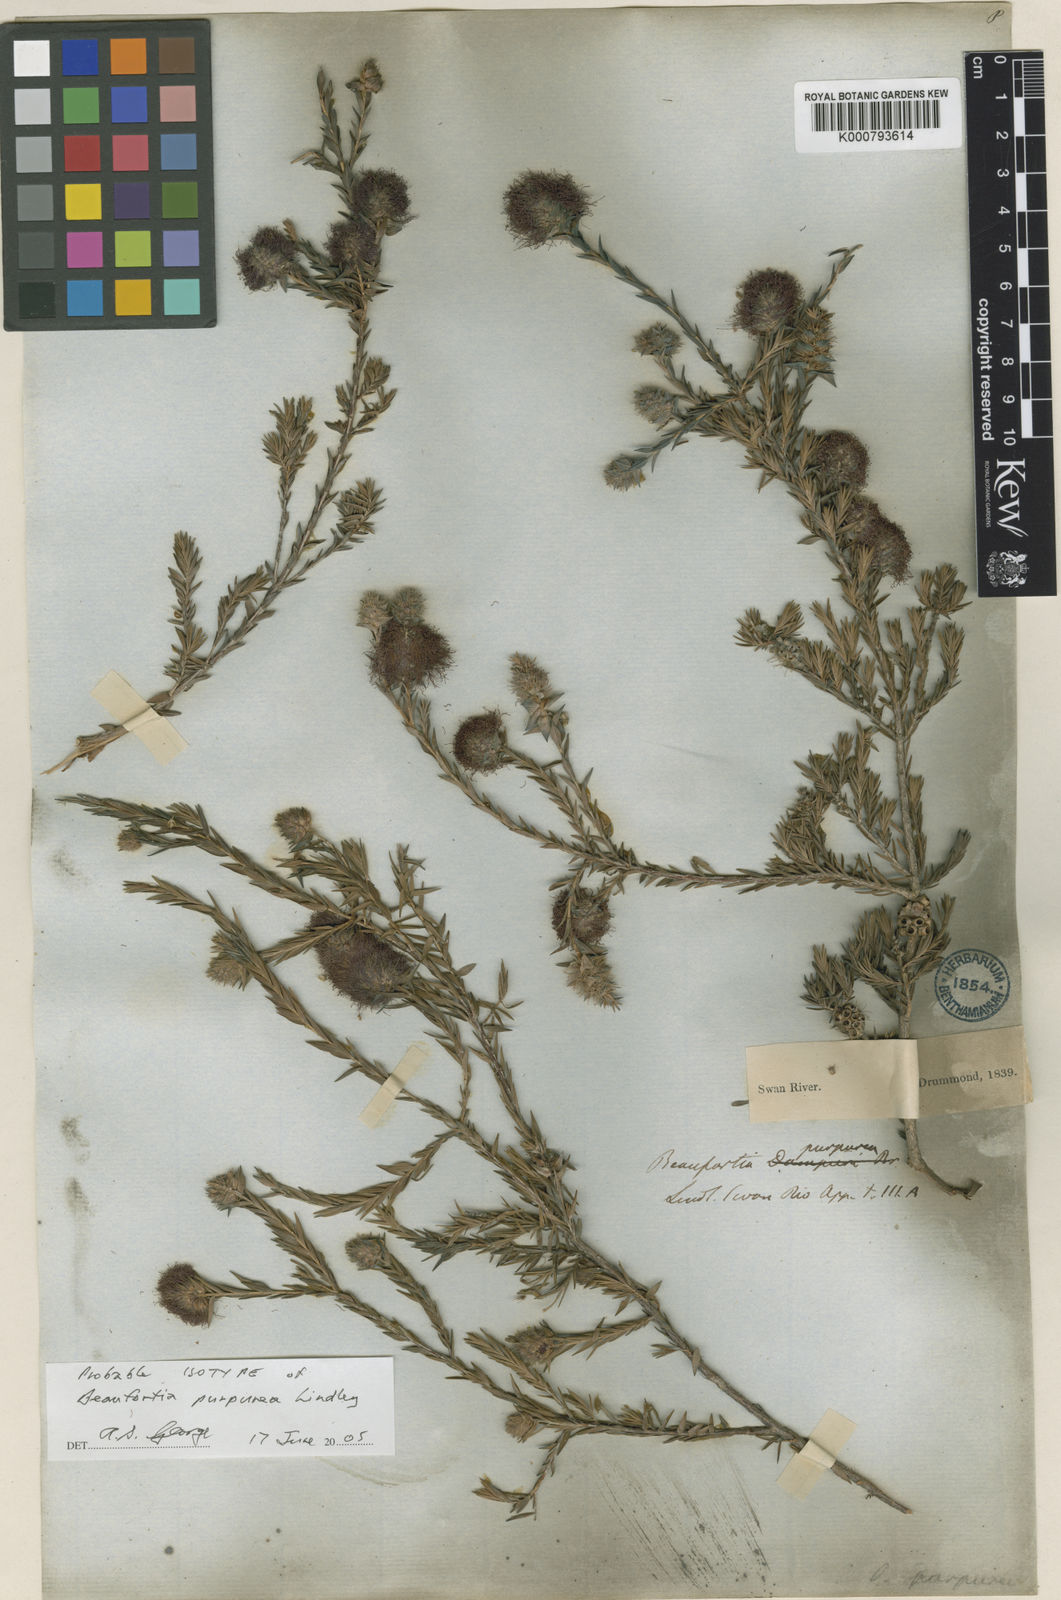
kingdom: Plantae
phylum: Tracheophyta
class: Magnoliopsida
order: Myrtales
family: Myrtaceae
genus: Melaleuca
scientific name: Melaleuca purpurea
